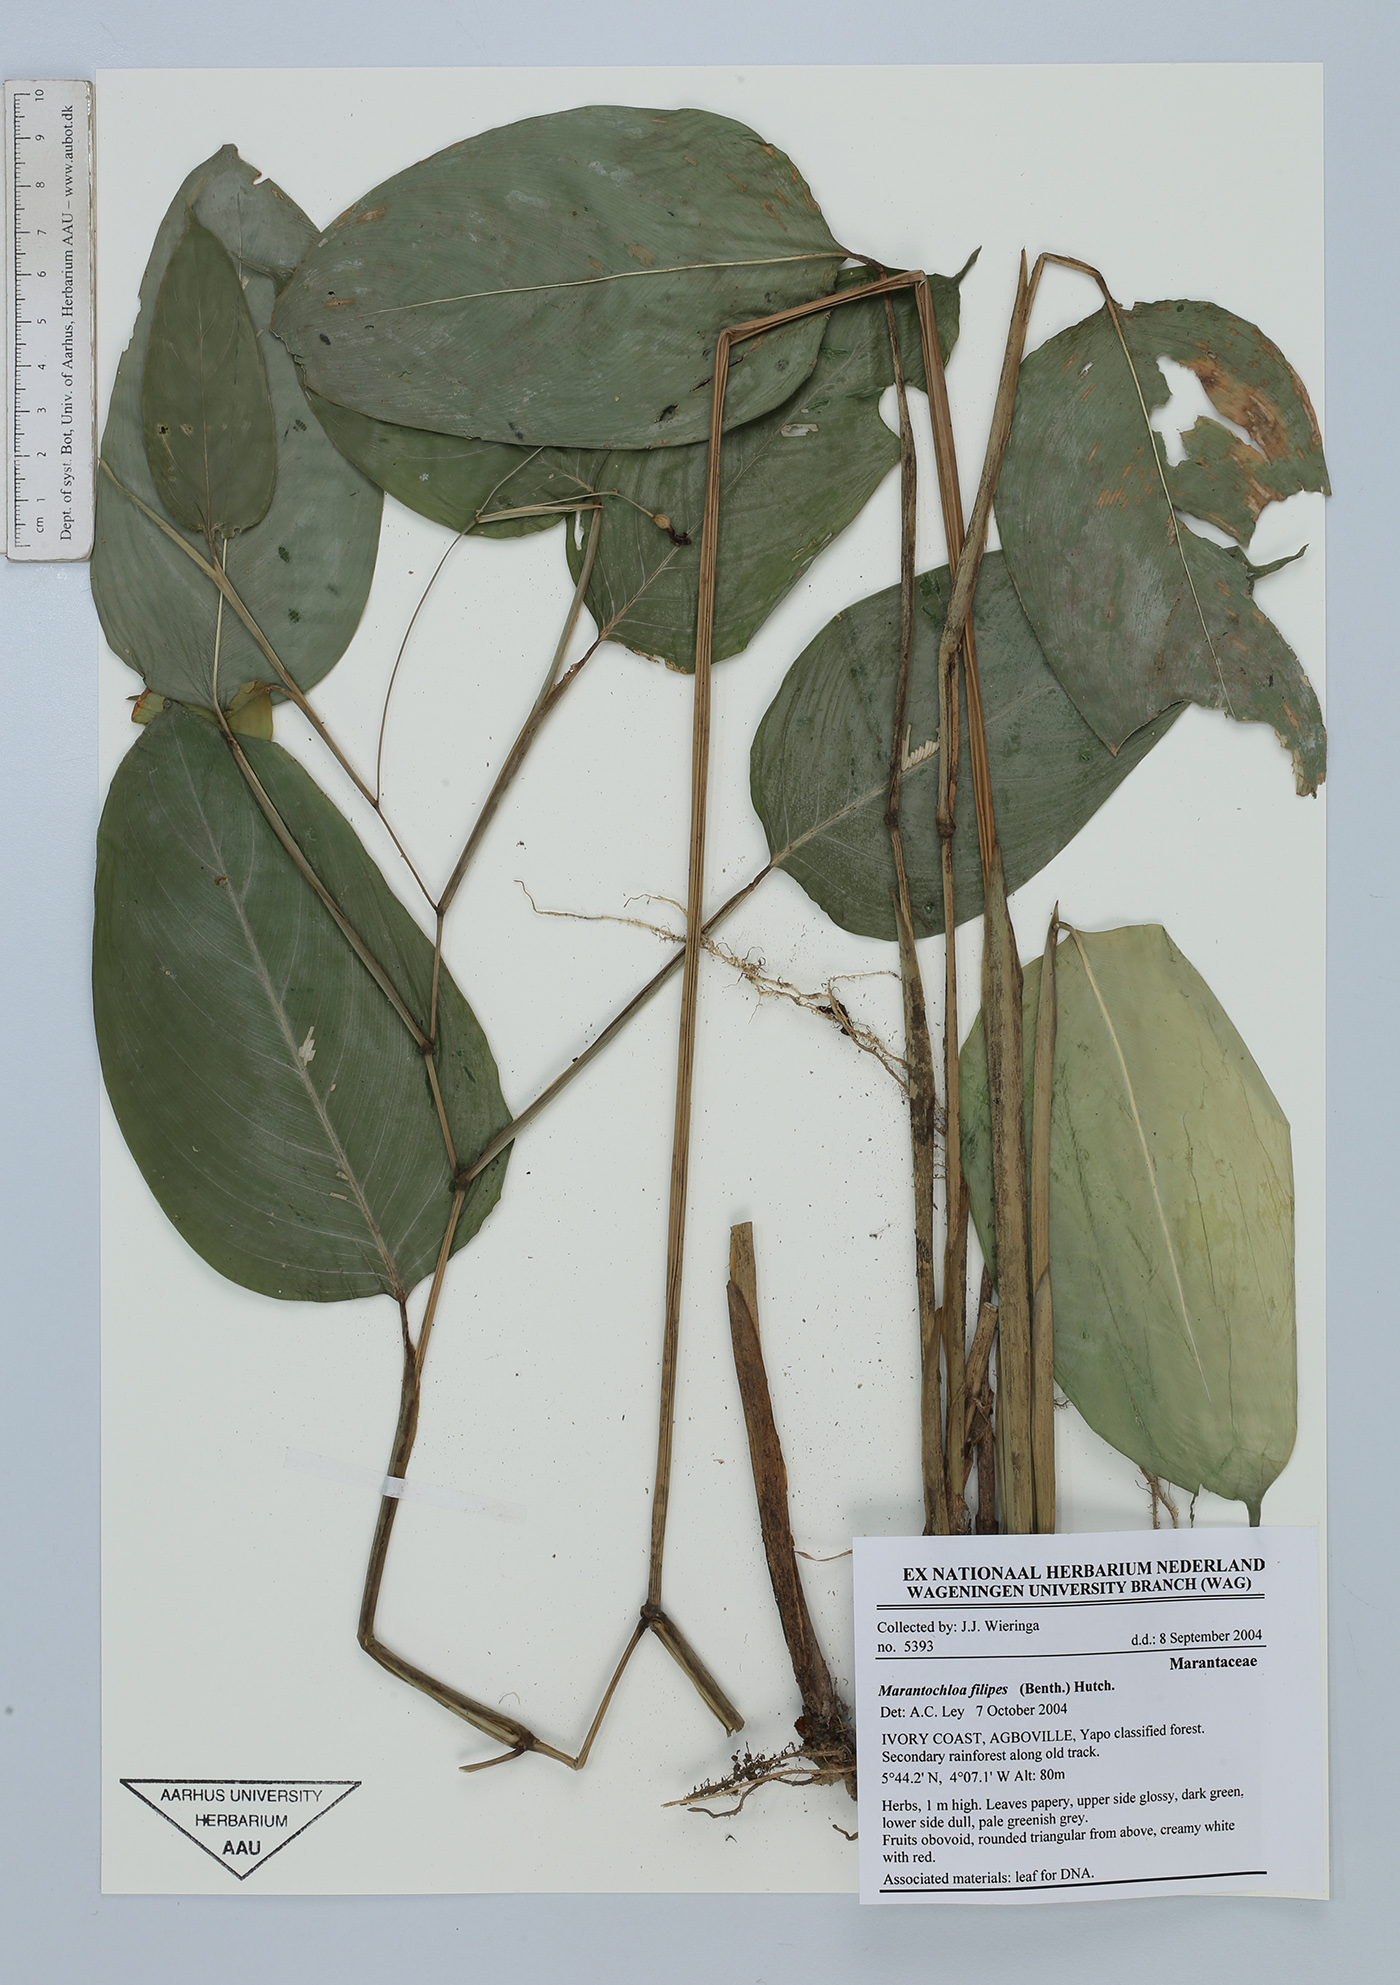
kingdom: Plantae
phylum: Tracheophyta
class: Liliopsida
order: Zingiberales
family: Marantaceae
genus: Marantochloa
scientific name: Marantochloa filipes
